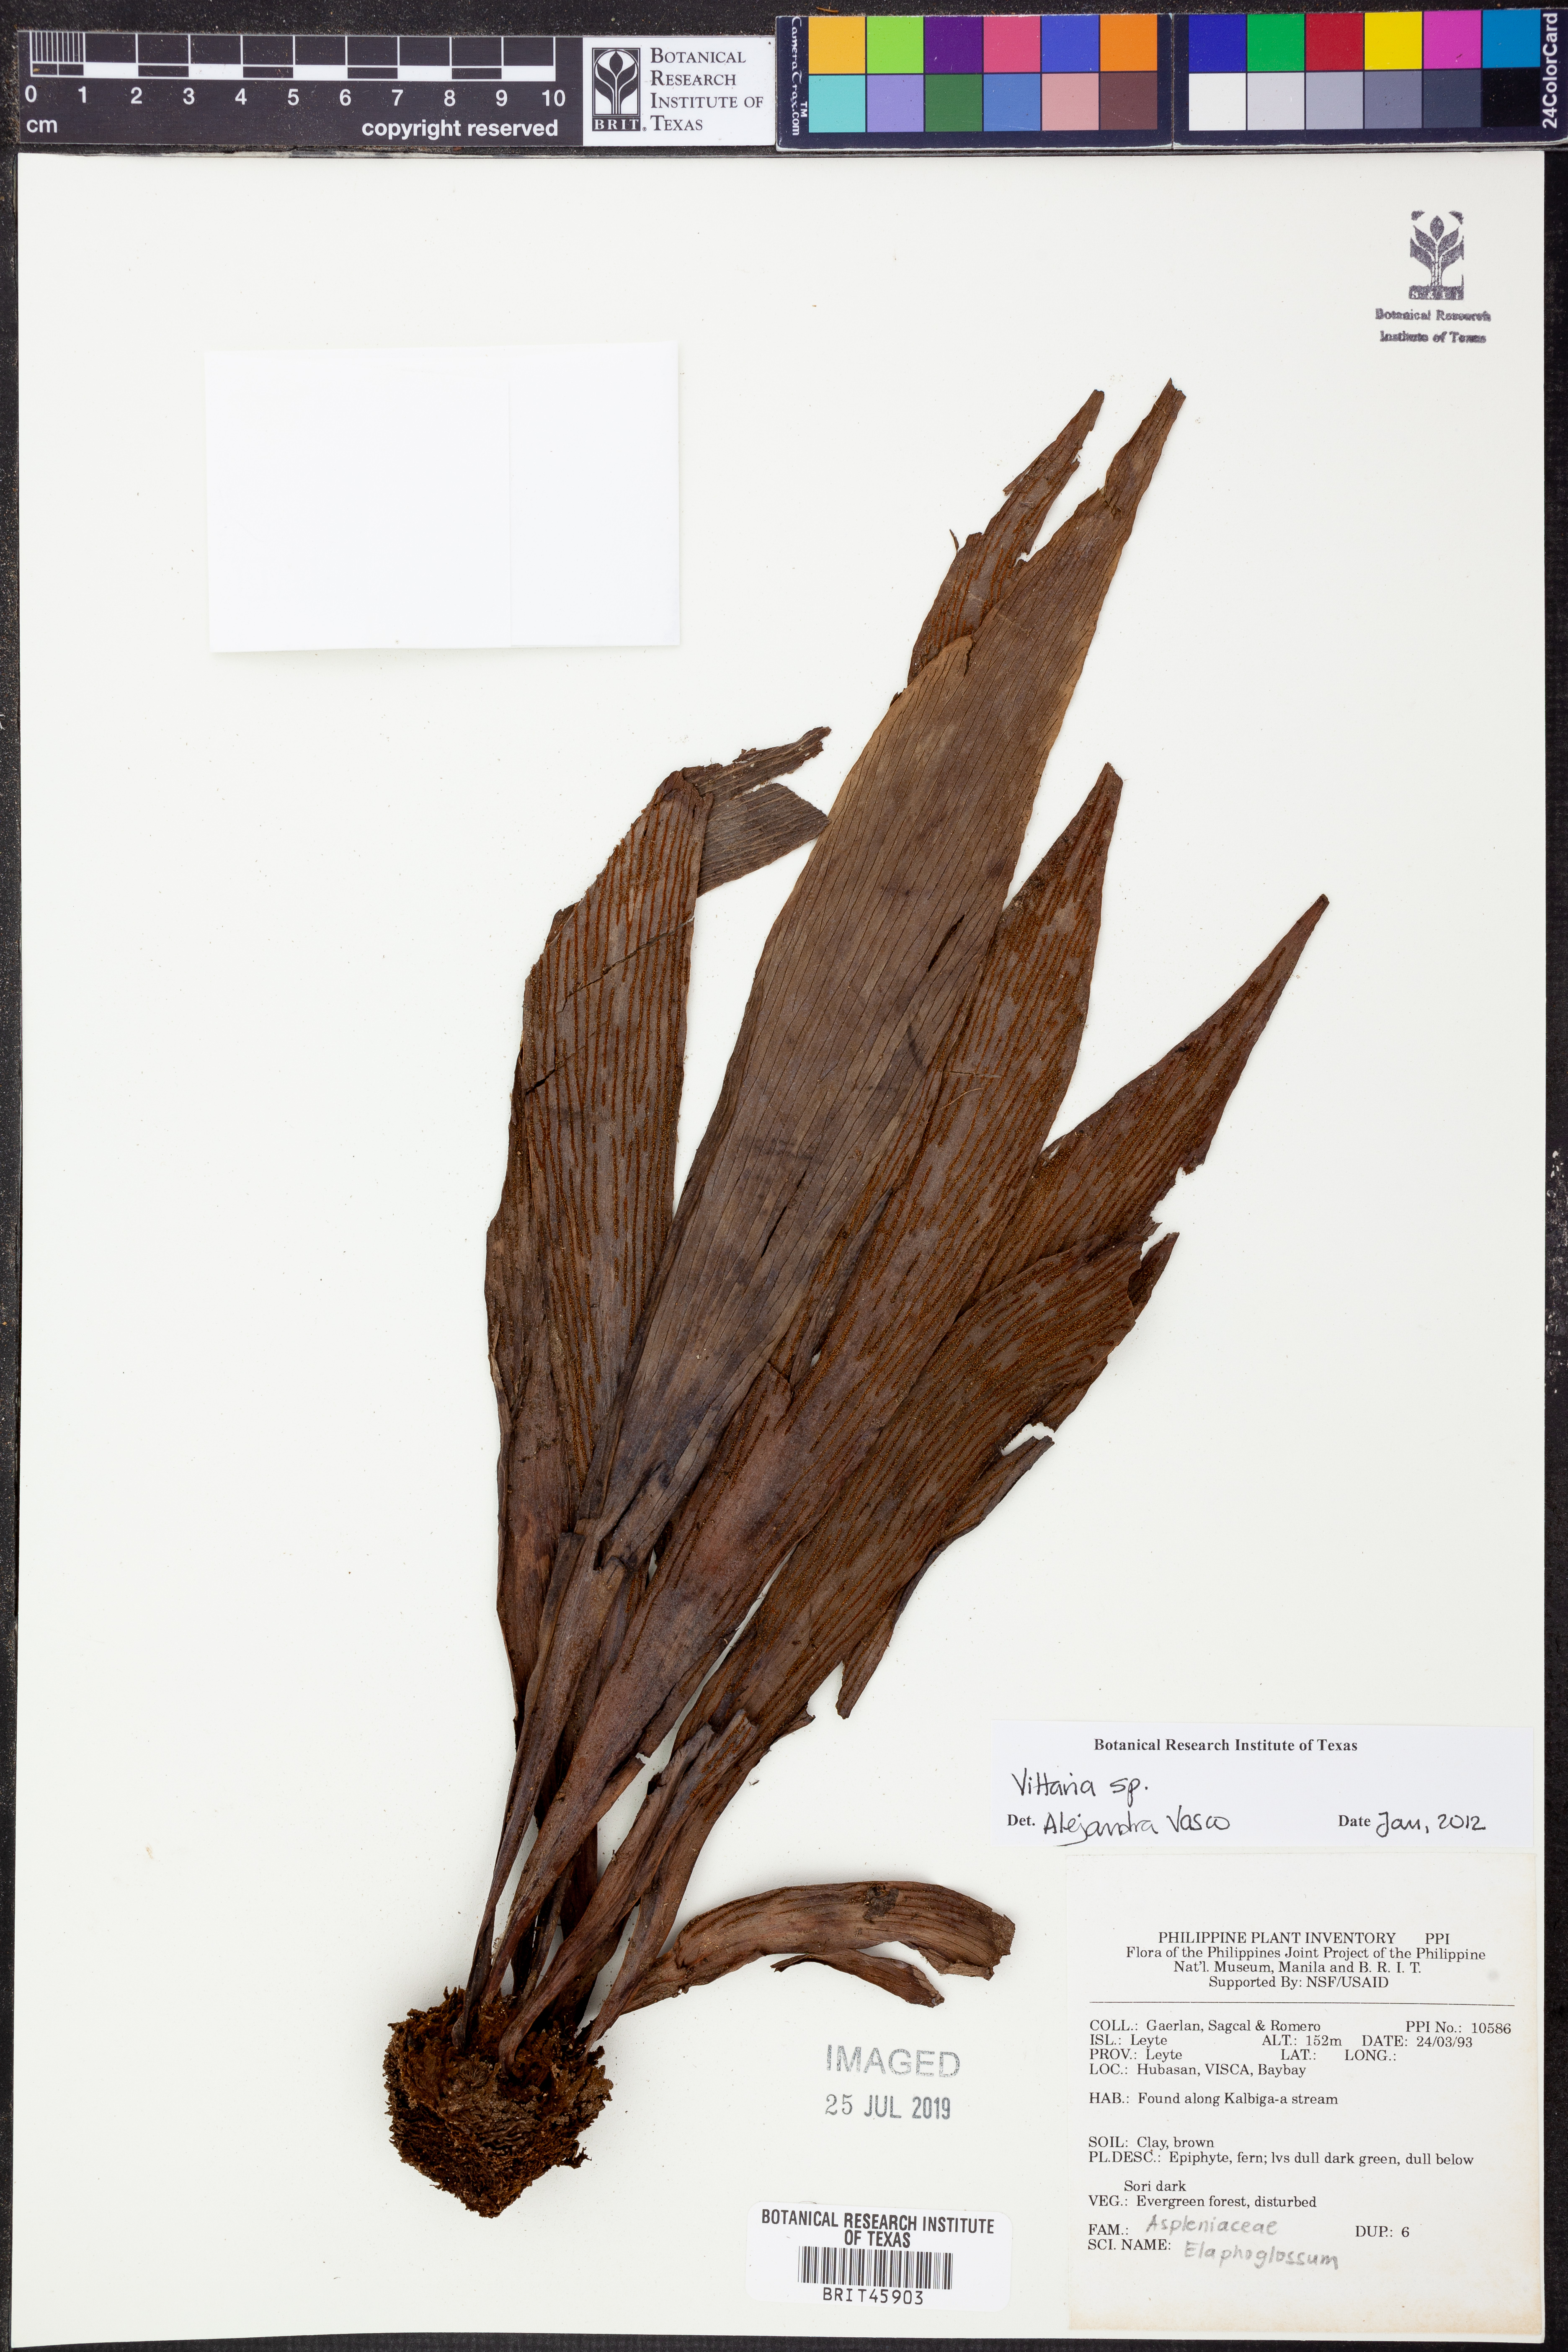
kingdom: Plantae
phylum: Tracheophyta
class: Polypodiopsida
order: Polypodiales
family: Pteridaceae
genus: Vittaria
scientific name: Vittaria
